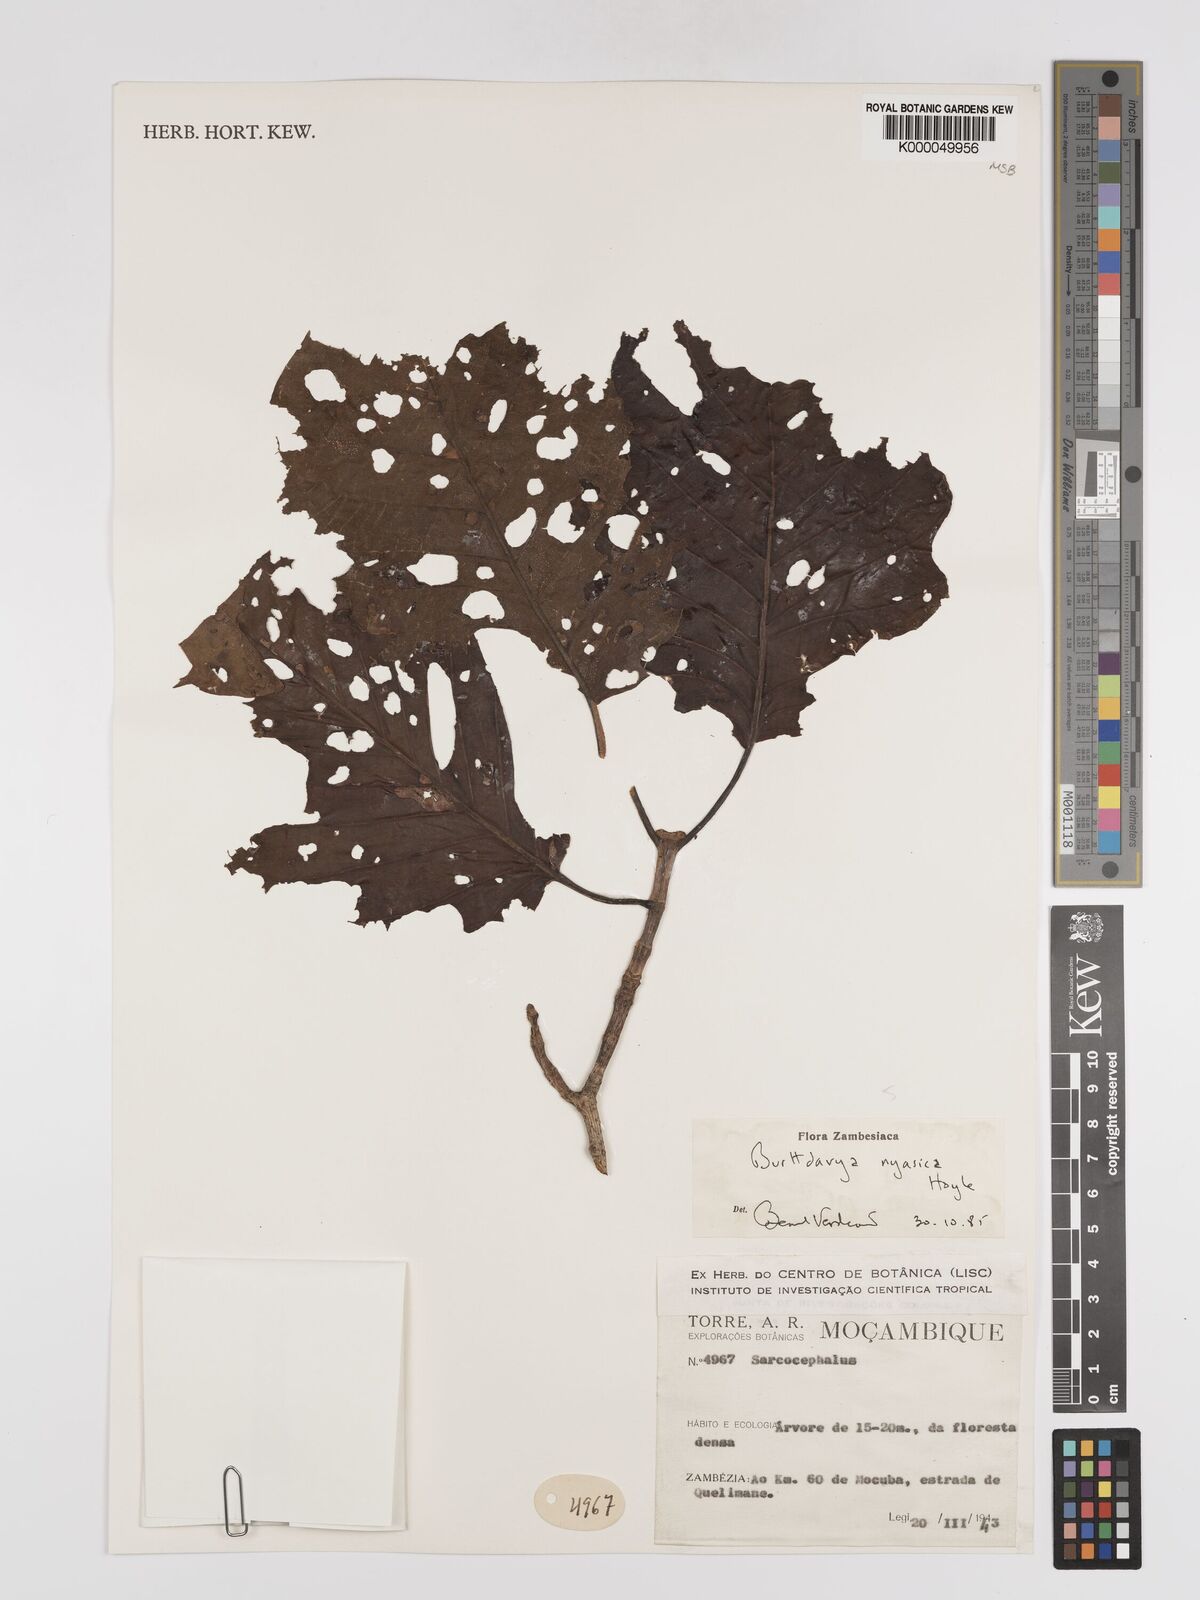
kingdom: Plantae
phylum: Tracheophyta
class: Magnoliopsida
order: Gentianales
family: Rubiaceae
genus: Nauclea
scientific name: Nauclea
